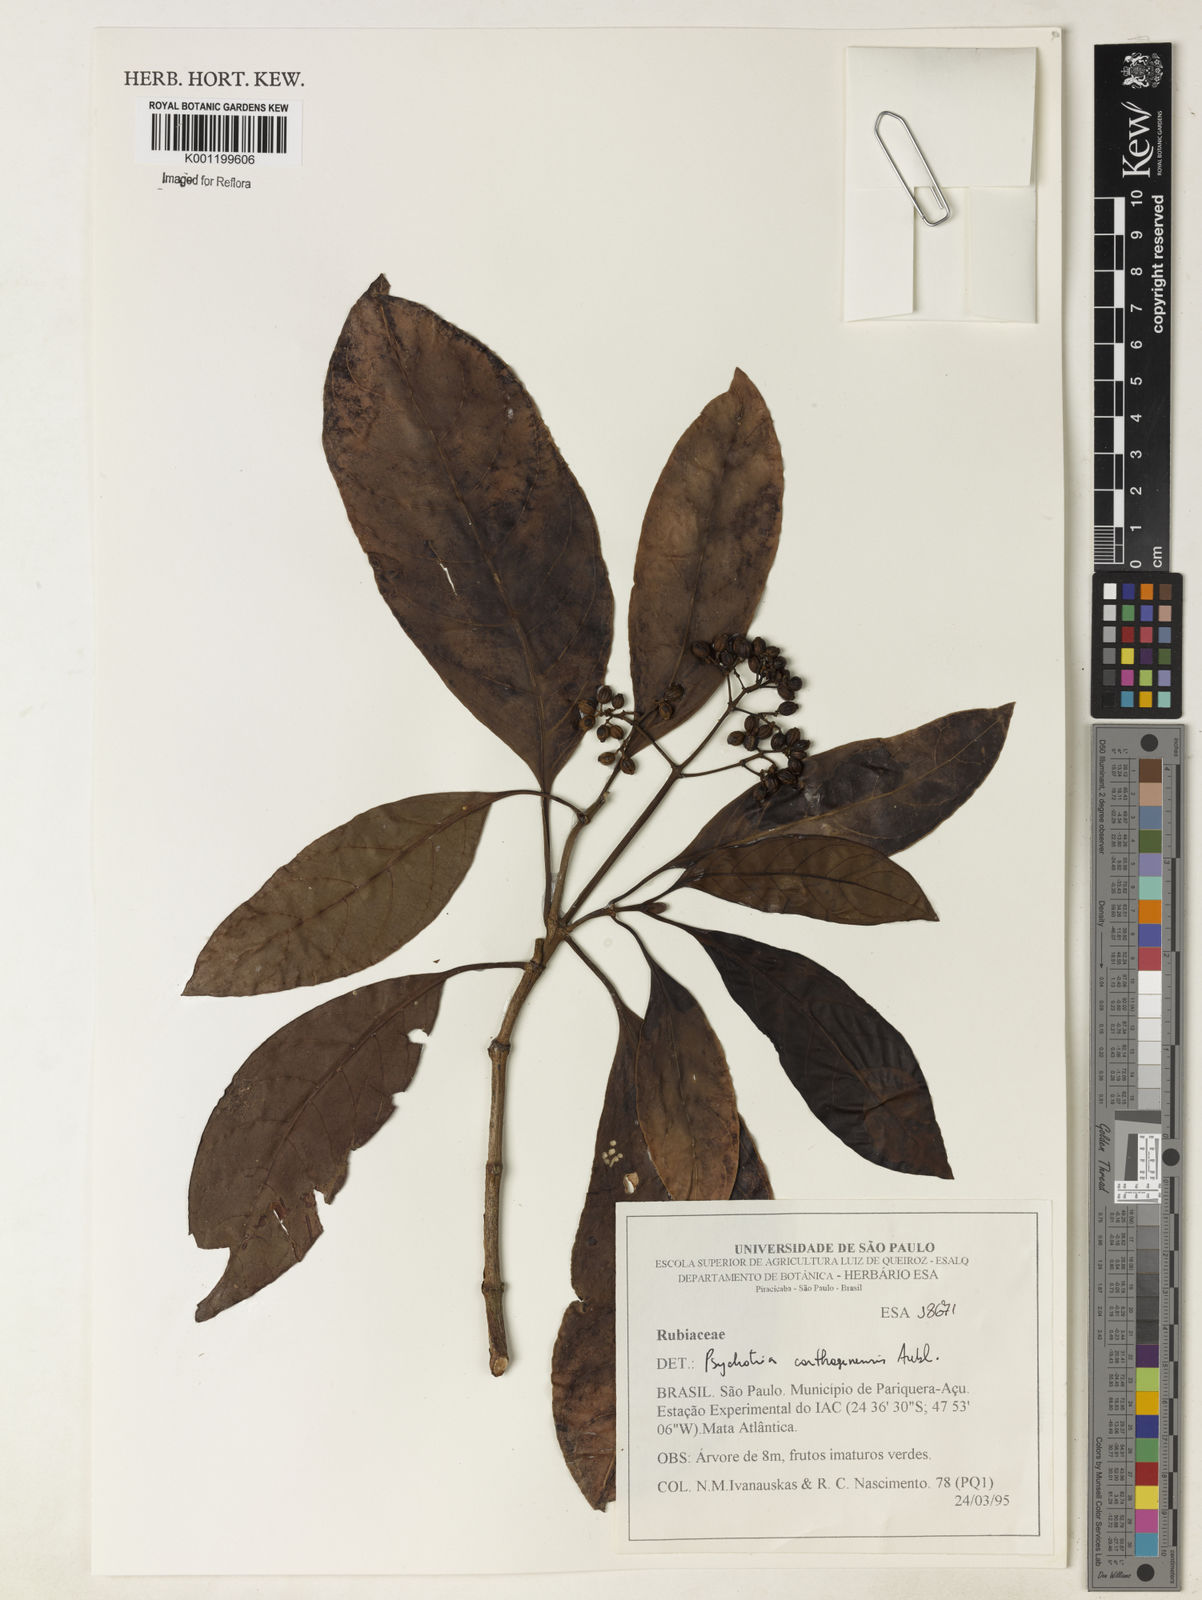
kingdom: Plantae
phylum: Tracheophyta
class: Magnoliopsida
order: Gentianales
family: Rubiaceae
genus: Psychotria
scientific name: Psychotria carthagenensis
